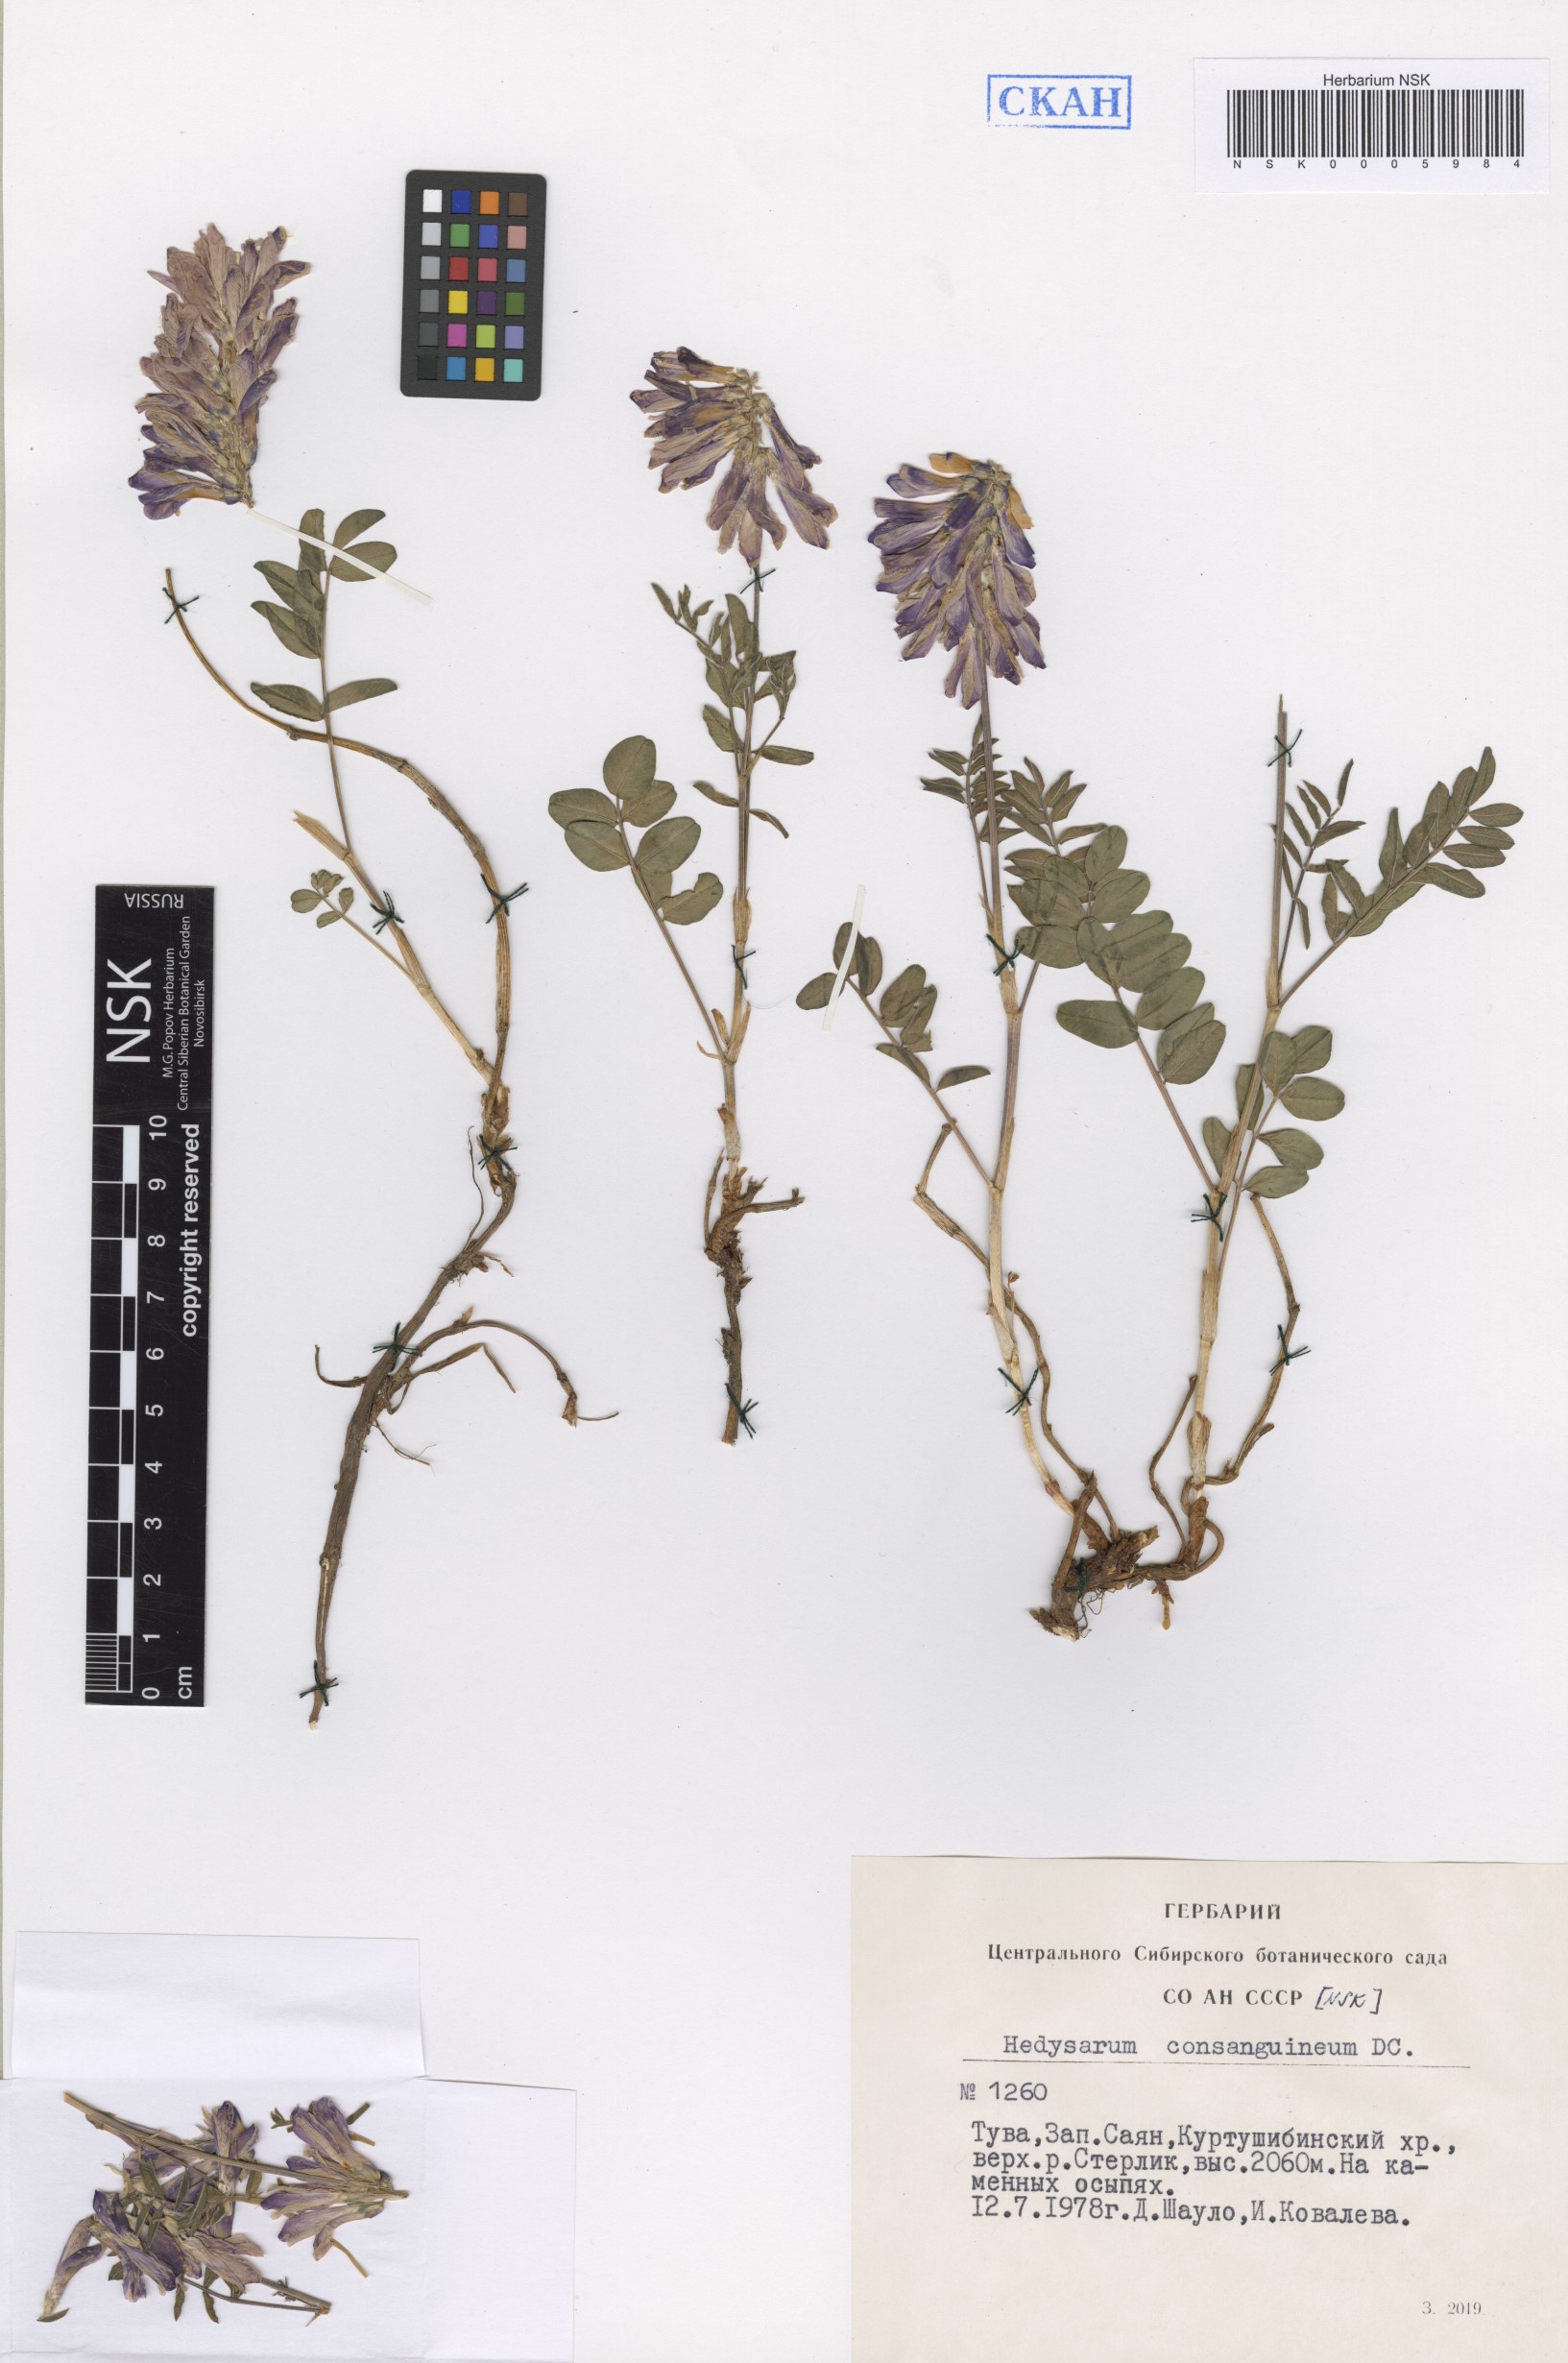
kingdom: Plantae
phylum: Tracheophyta
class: Magnoliopsida
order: Fabales
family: Fabaceae
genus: Hedysarum
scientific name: Hedysarum consanguineum
